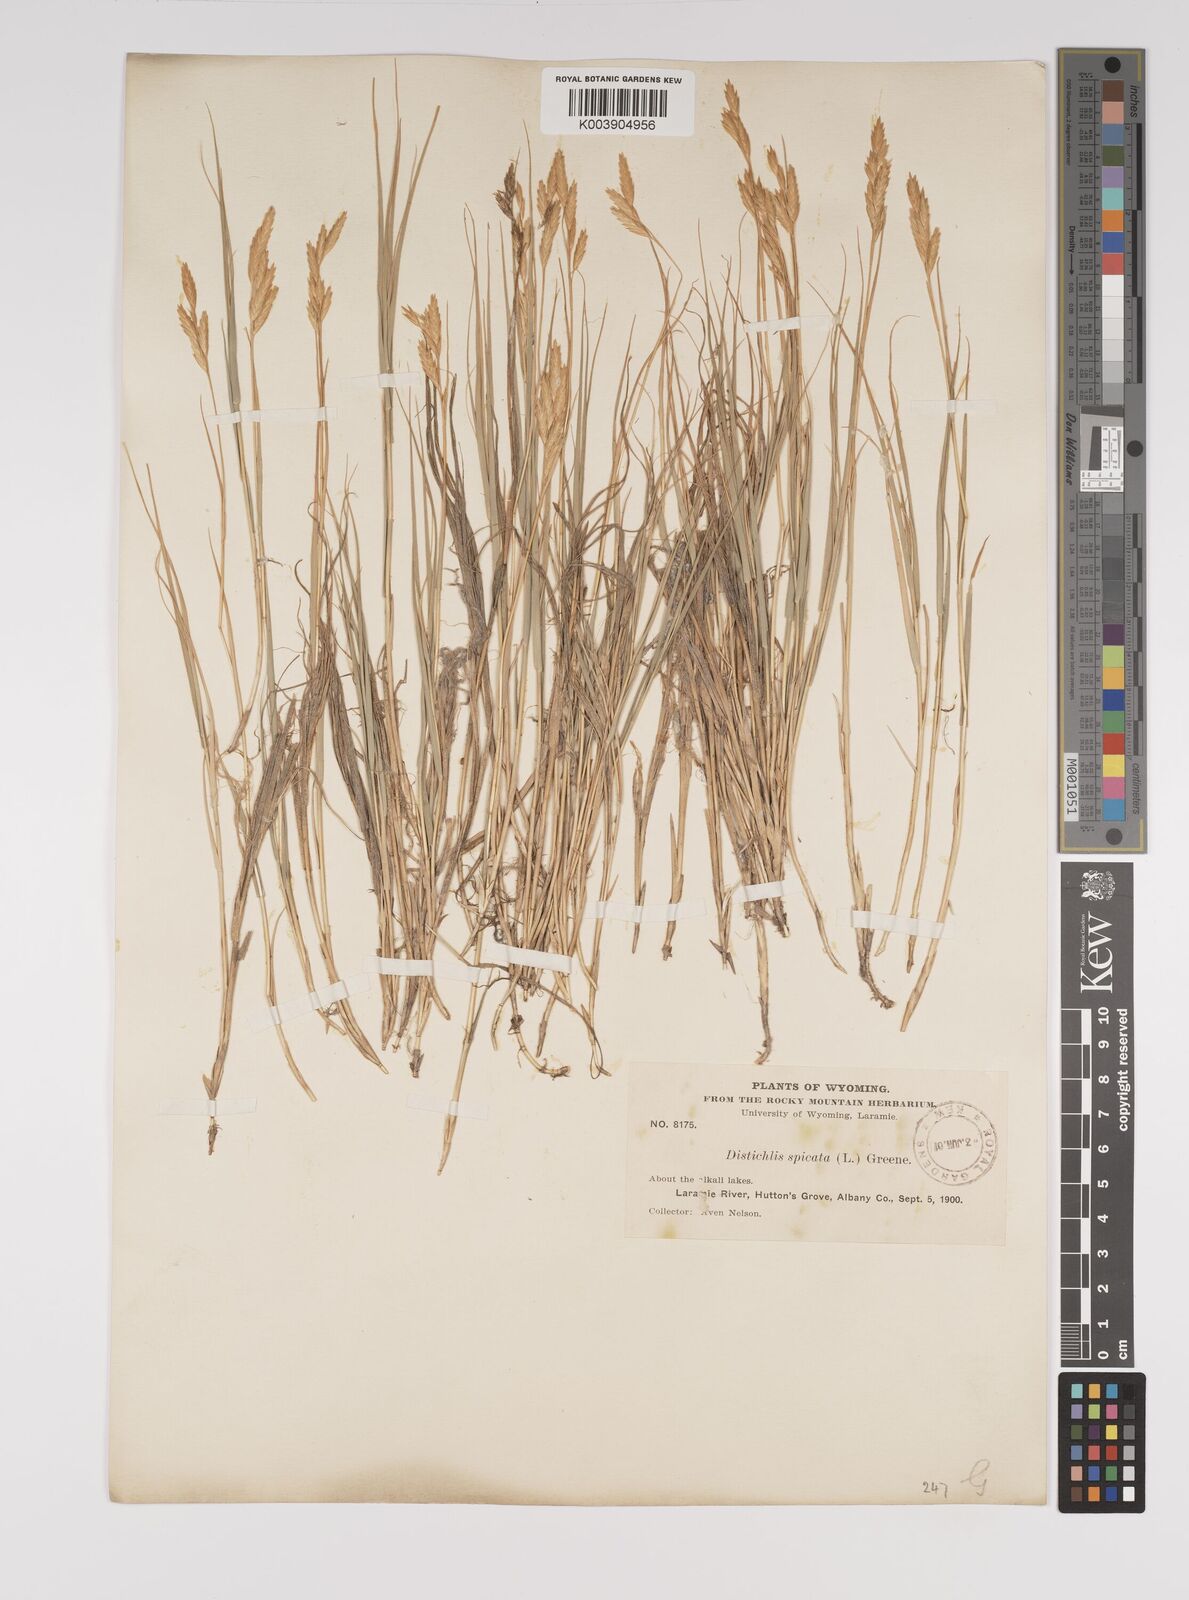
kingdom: Plantae
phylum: Tracheophyta
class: Liliopsida
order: Poales
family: Poaceae
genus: Distichlis
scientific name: Distichlis spicata
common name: Saltgrass
